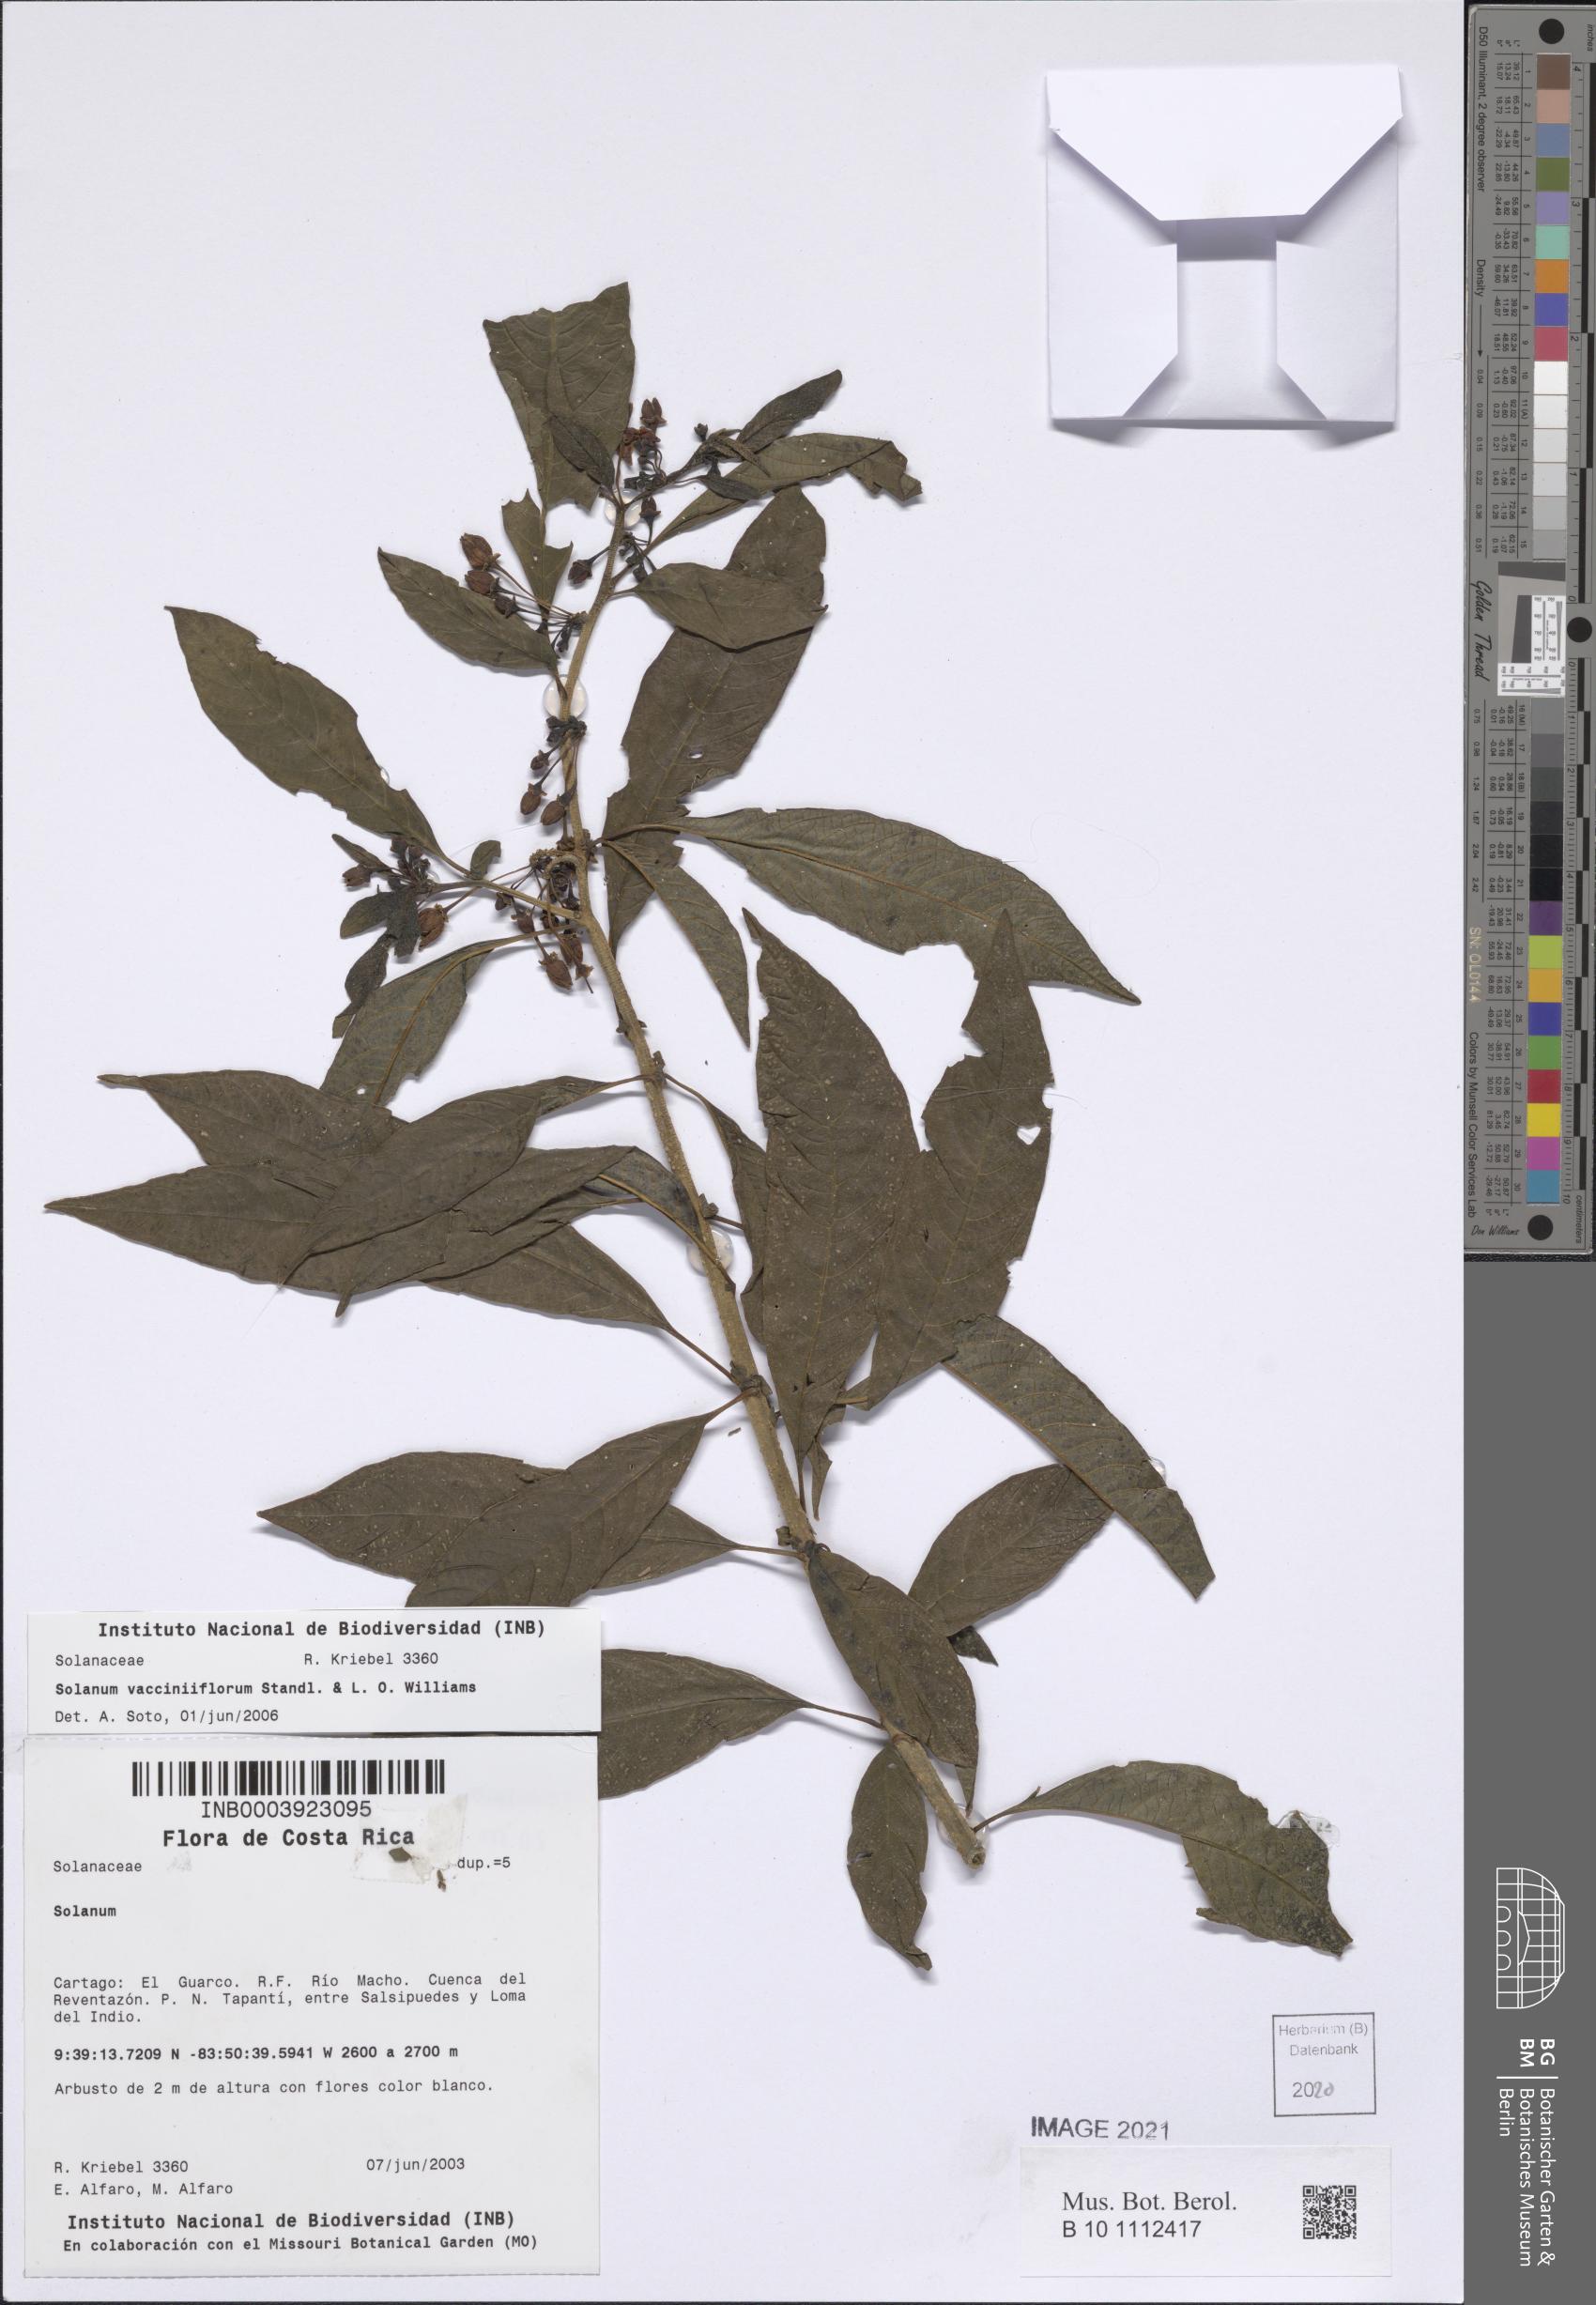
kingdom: Plantae
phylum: Tracheophyta
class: Magnoliopsida
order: Solanales
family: Solanaceae
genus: Solanum
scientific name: Solanum vacciniiflorum
